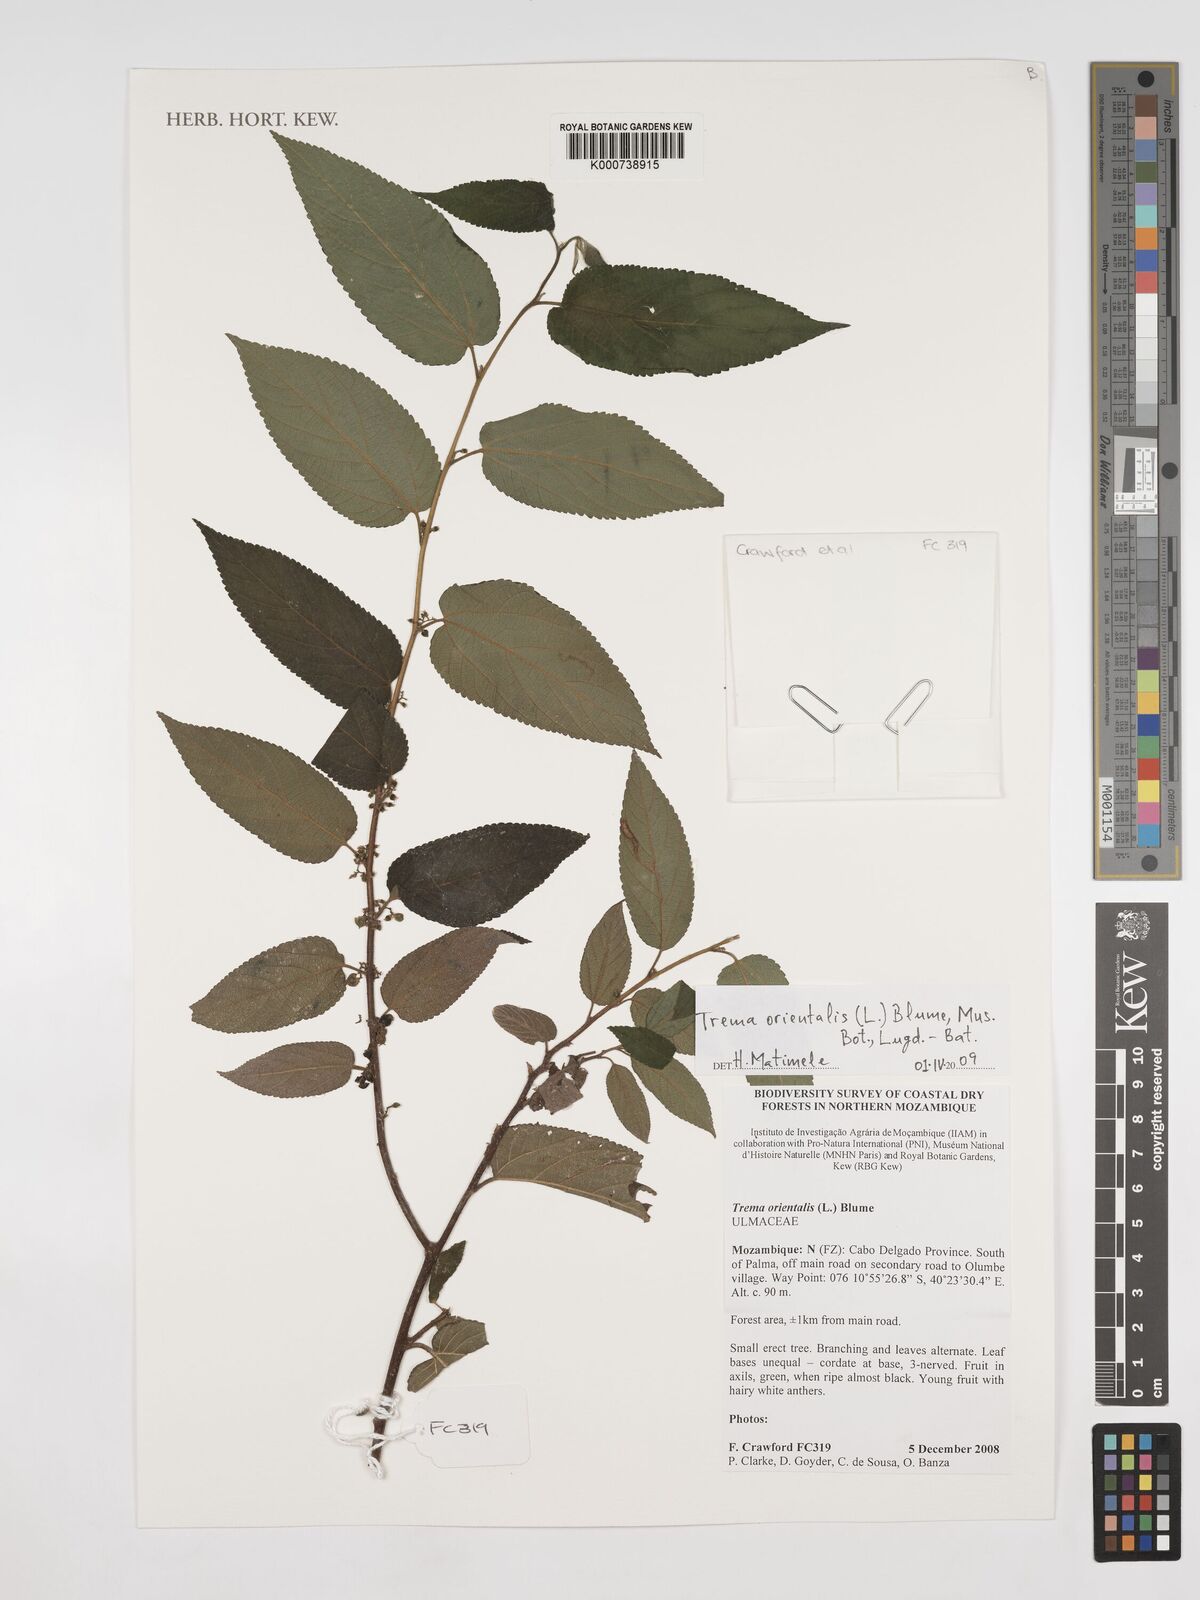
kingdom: Plantae
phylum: Tracheophyta
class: Magnoliopsida
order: Rosales
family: Cannabaceae
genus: Trema
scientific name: Trema orientale
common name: Indian charcoal tree
